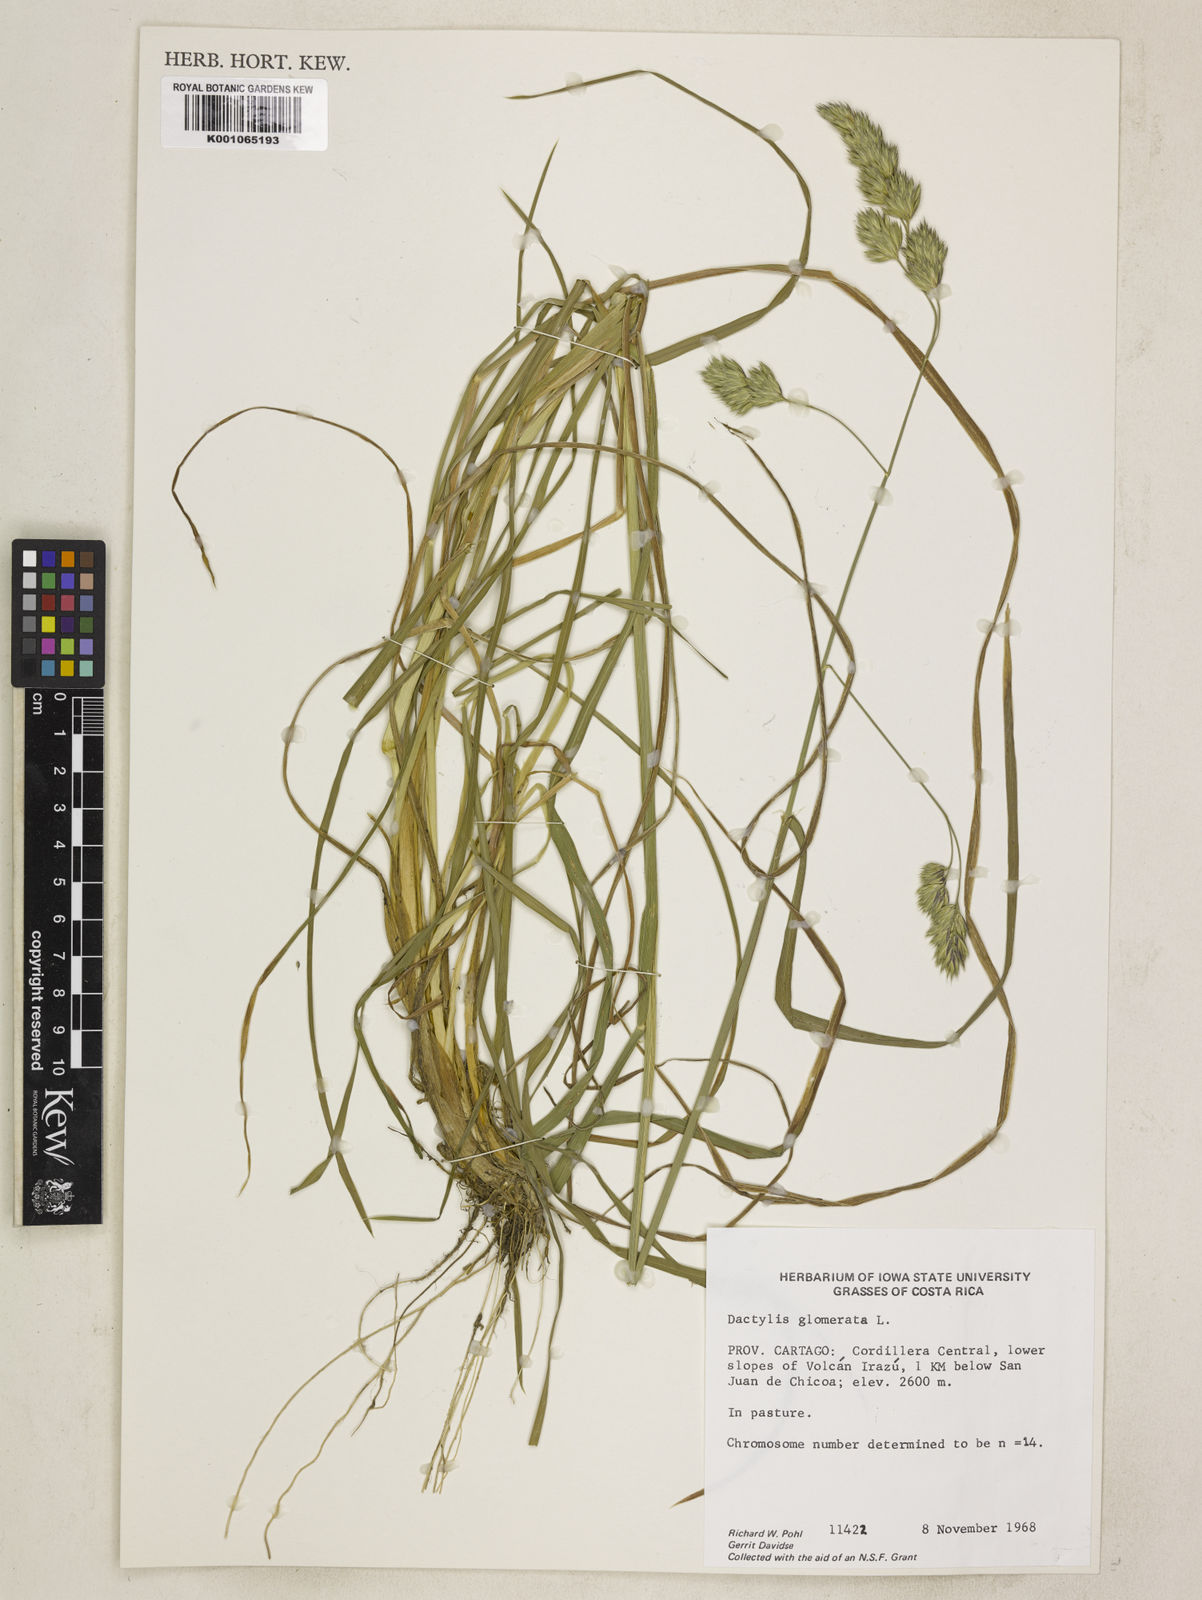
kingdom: Plantae
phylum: Tracheophyta
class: Liliopsida
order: Poales
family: Poaceae
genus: Dactylis
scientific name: Dactylis glomerata
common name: Orchardgrass
